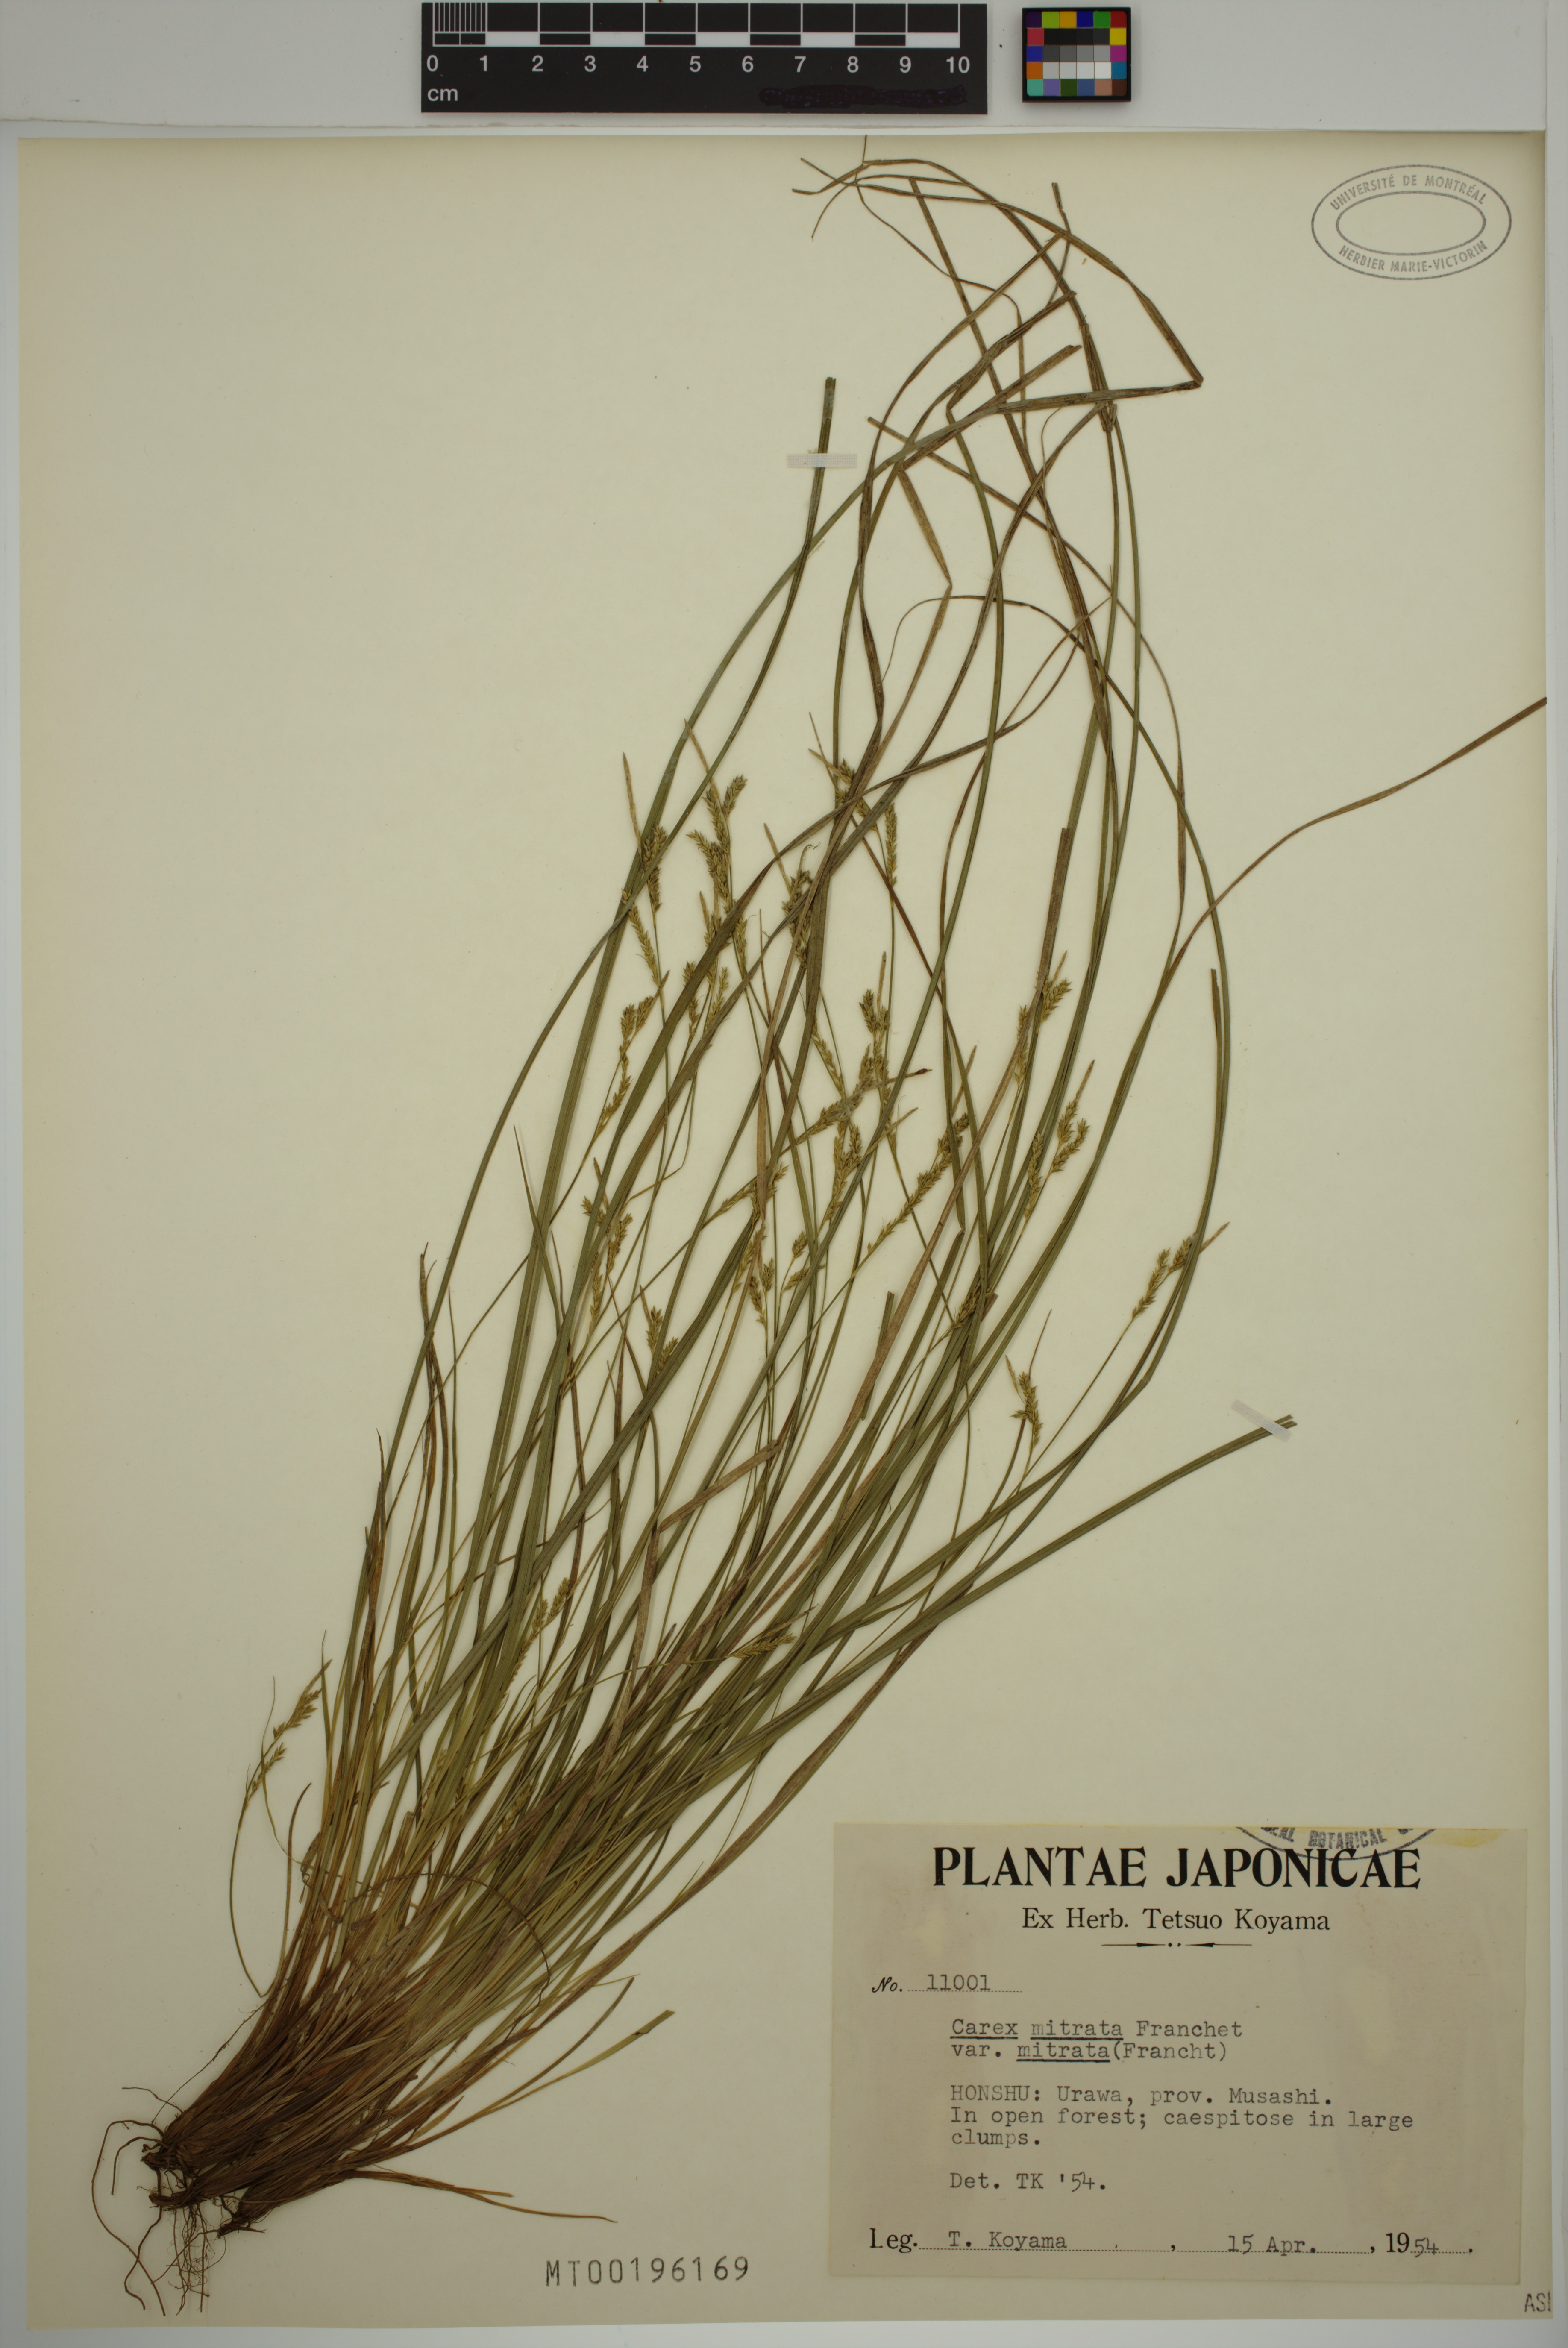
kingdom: Plantae
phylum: Tracheophyta
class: Liliopsida
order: Poales
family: Cyperaceae
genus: Carex
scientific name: Carex mitrata
